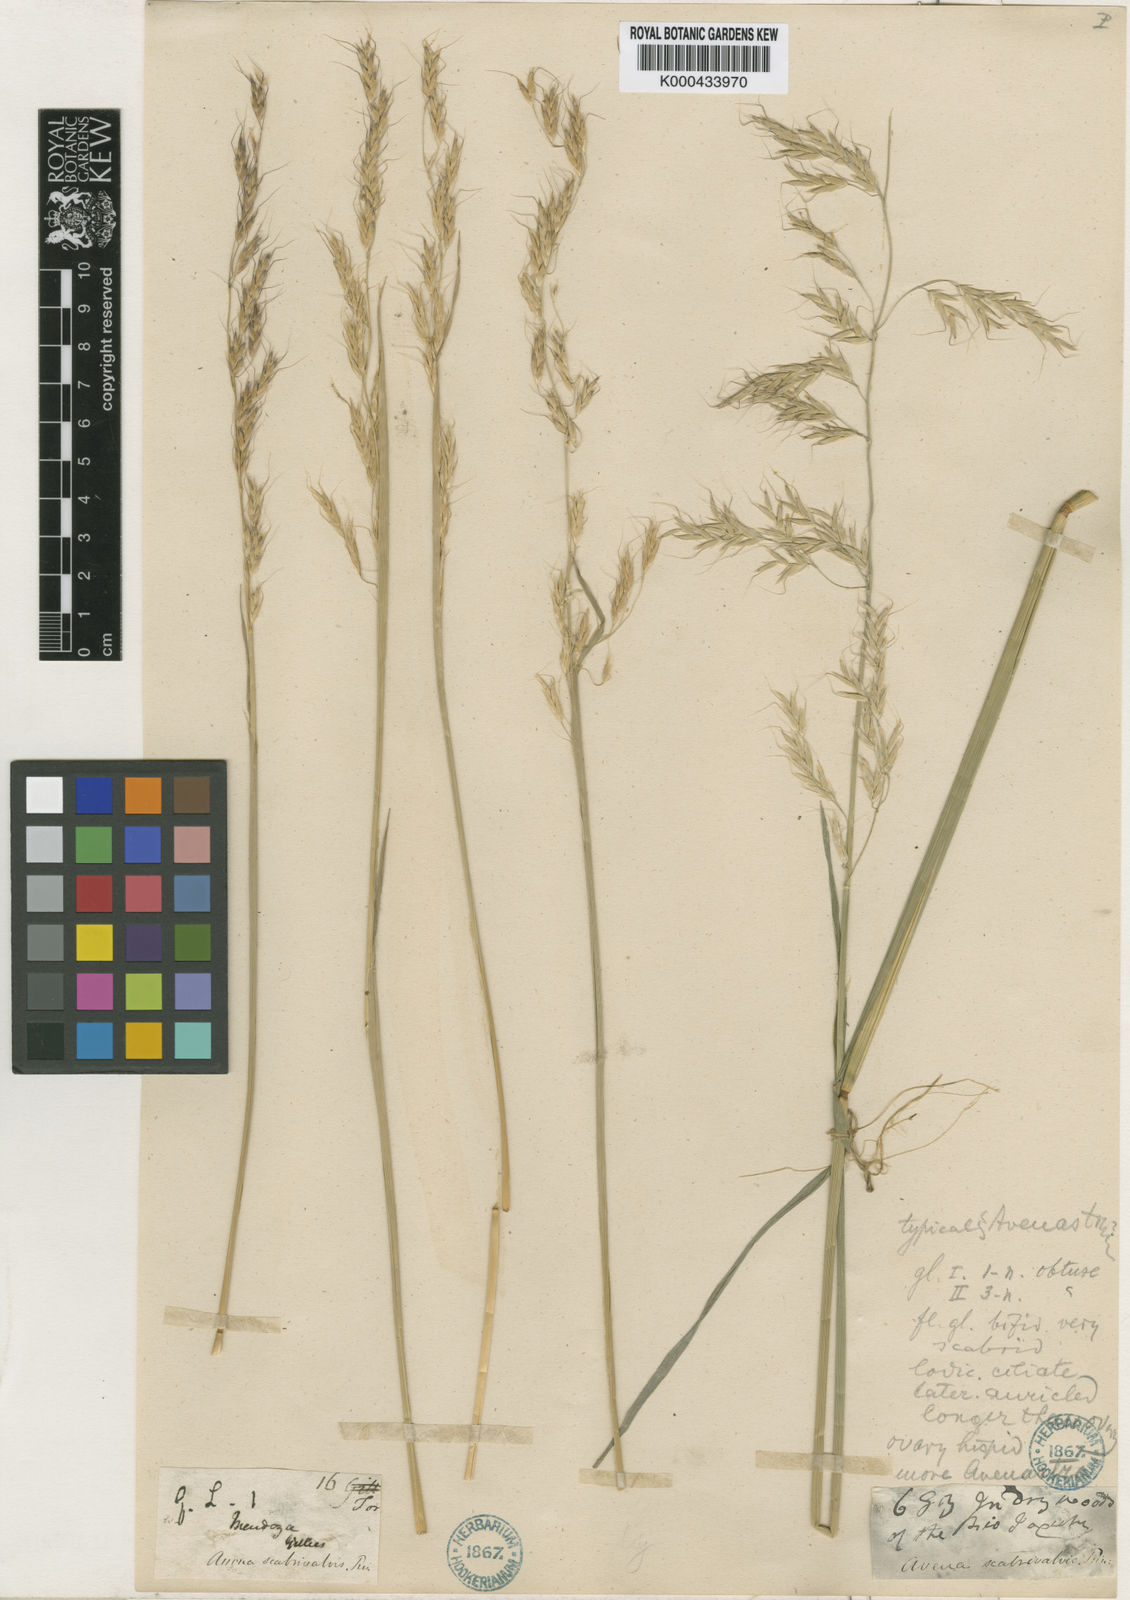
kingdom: Plantae
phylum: Tracheophyta
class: Liliopsida
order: Poales
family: Poaceae
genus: Amphibromus
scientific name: Amphibromus scabrivalvis
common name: Swamp wallaby grass
